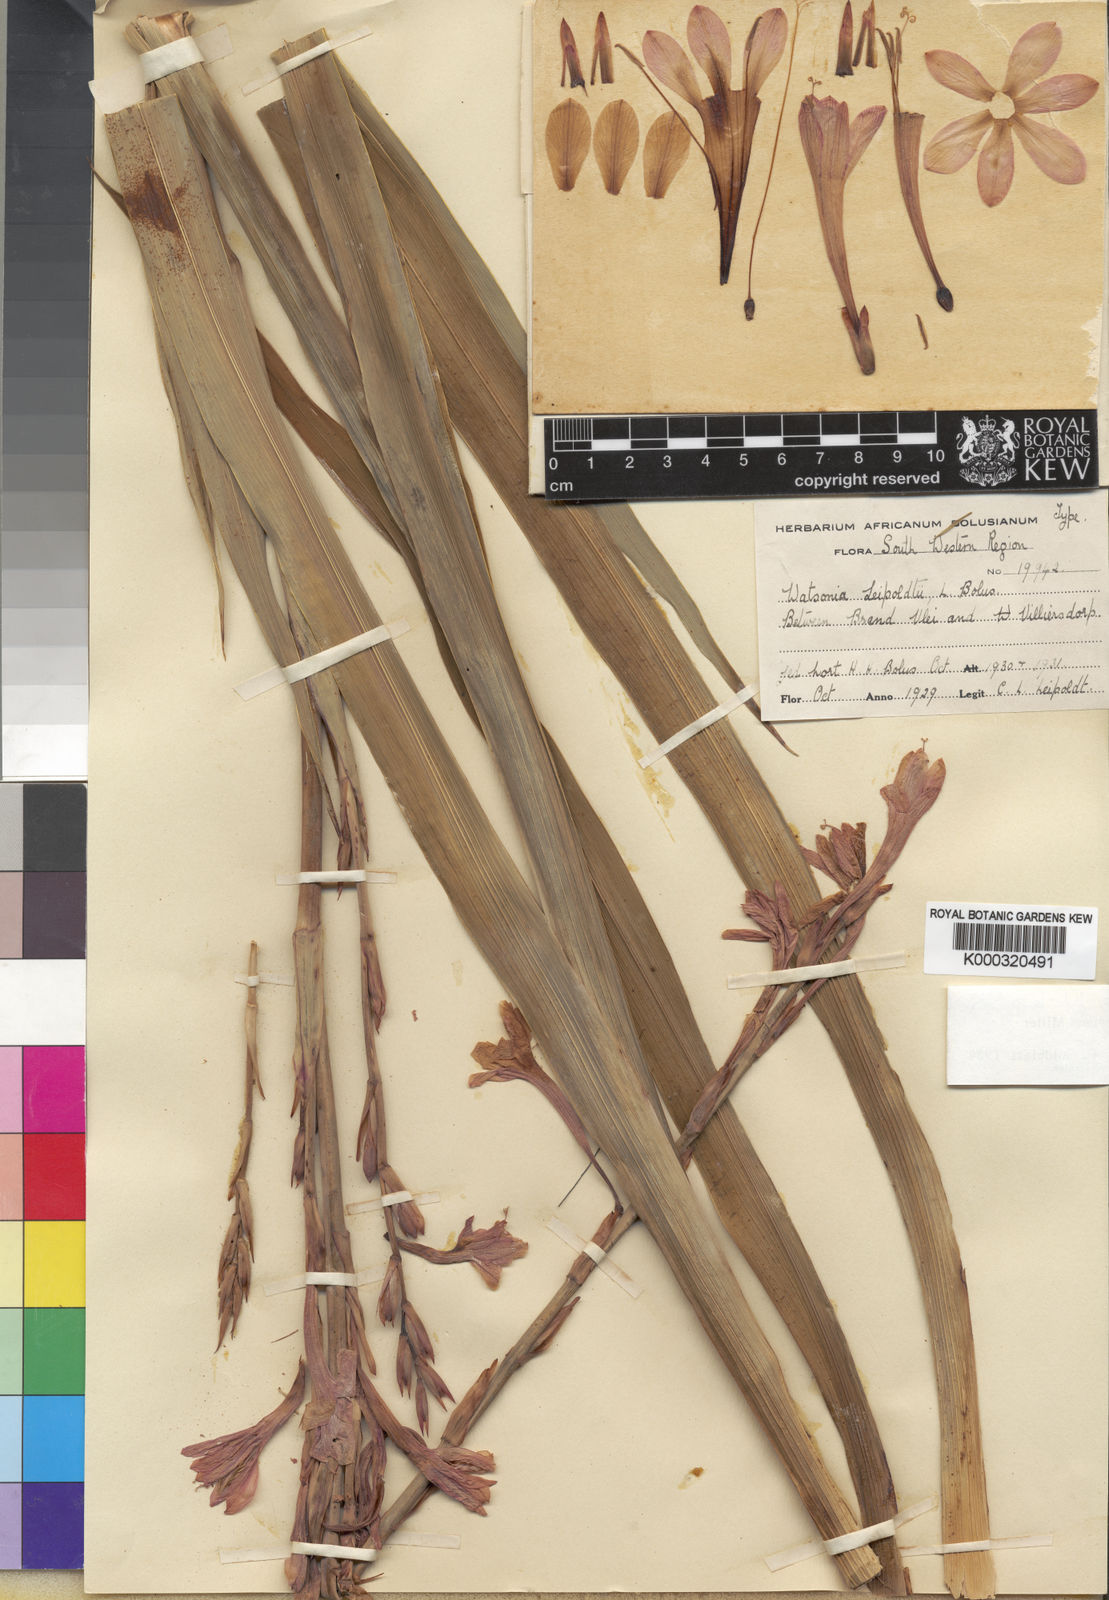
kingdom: Plantae
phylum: Tracheophyta
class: Liliopsida
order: Asparagales
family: Iridaceae
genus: Watsonia
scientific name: Watsonia meriana
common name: Bulbil bugle-lily
